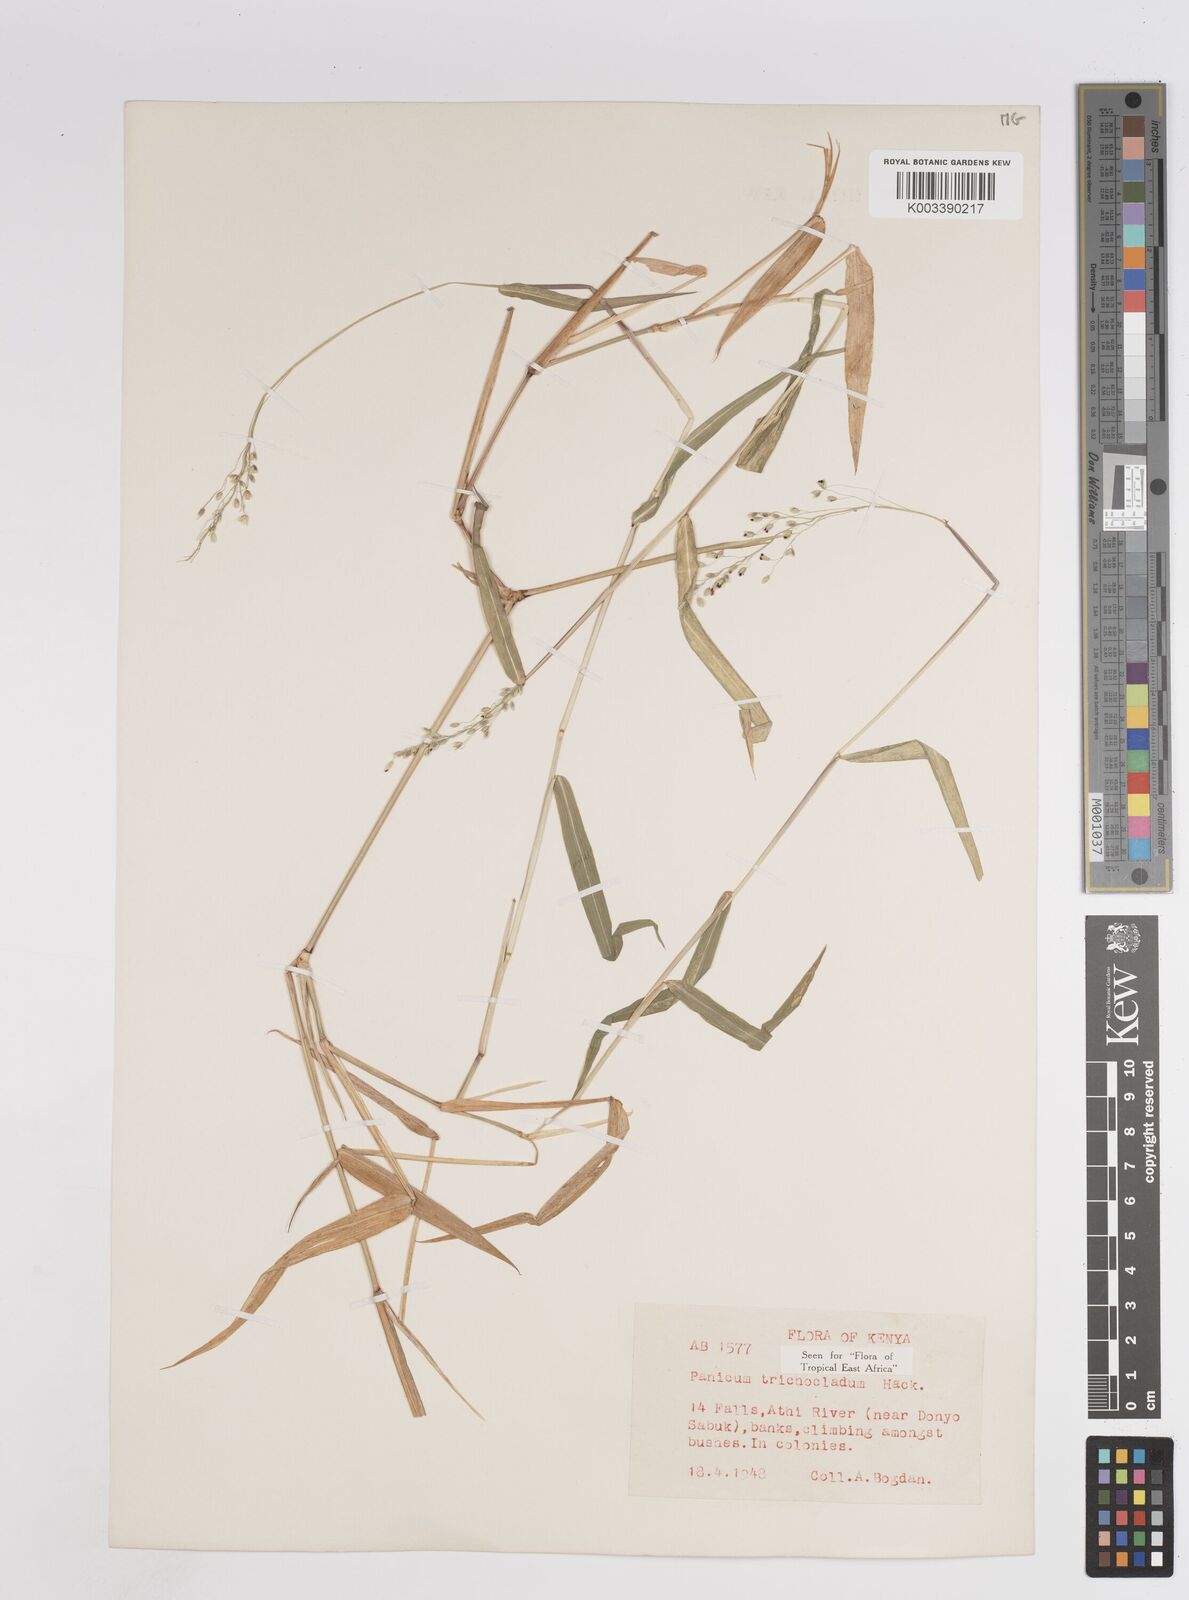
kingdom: Plantae
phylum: Tracheophyta
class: Liliopsida
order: Poales
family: Poaceae
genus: Panicum
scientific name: Panicum trichocladum
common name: Donkey grass
